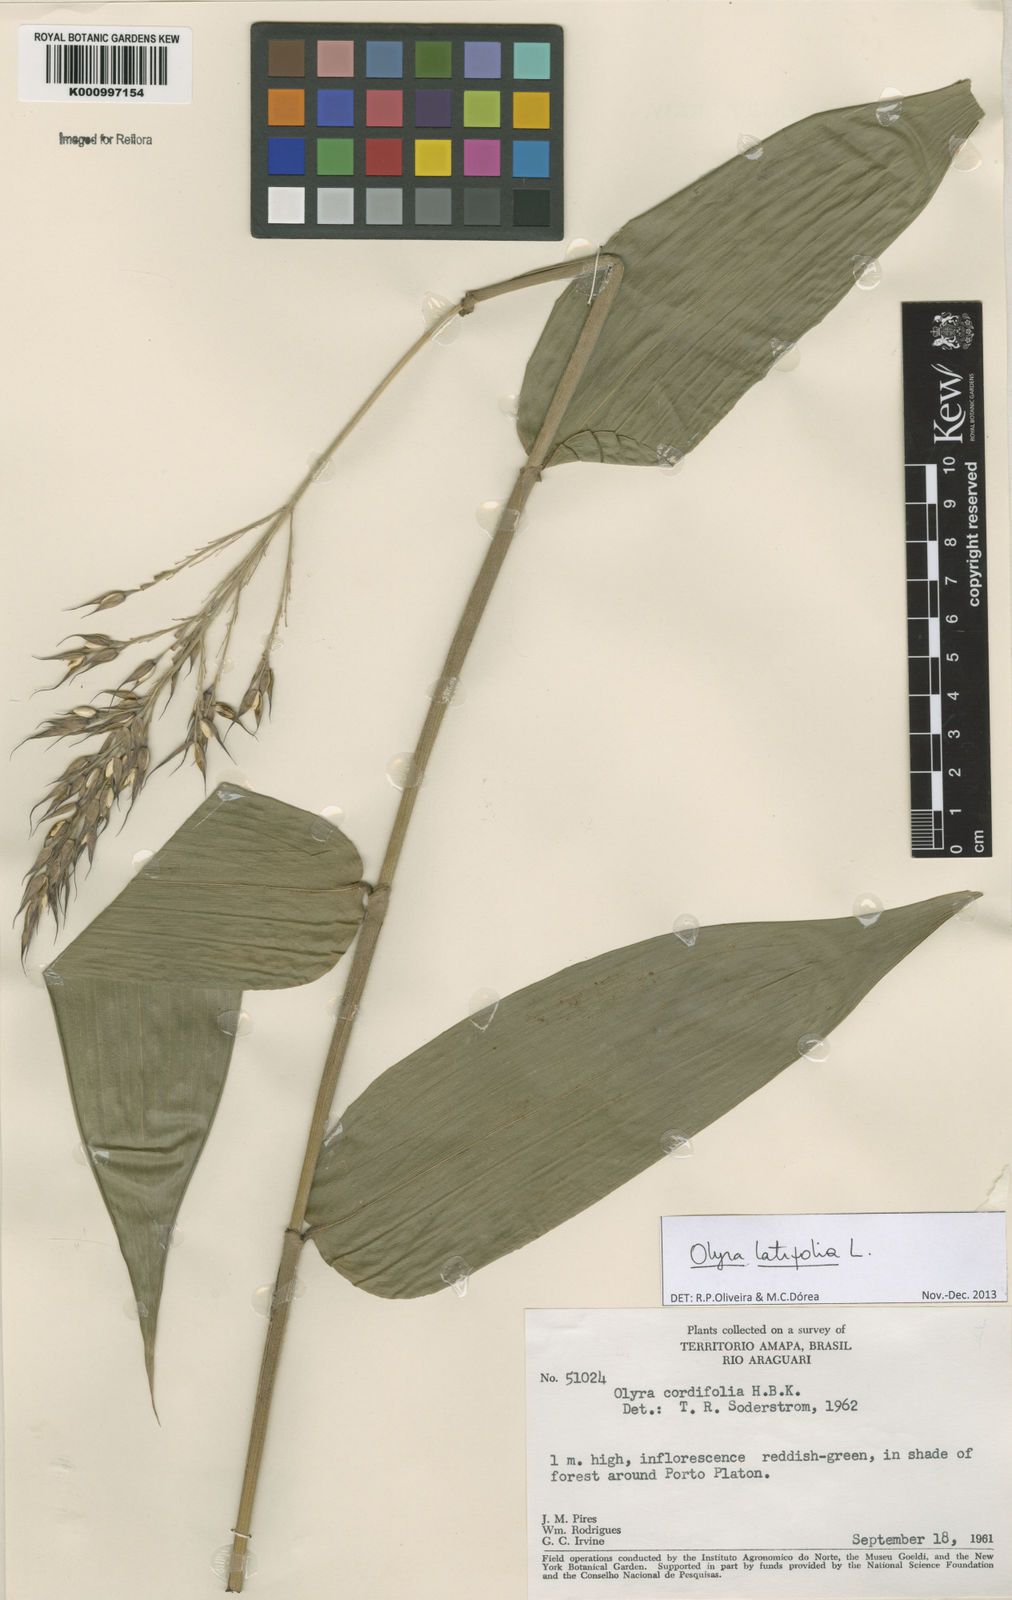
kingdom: Plantae
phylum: Tracheophyta
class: Liliopsida
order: Poales
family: Poaceae
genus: Olyra
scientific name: Olyra latifolia
